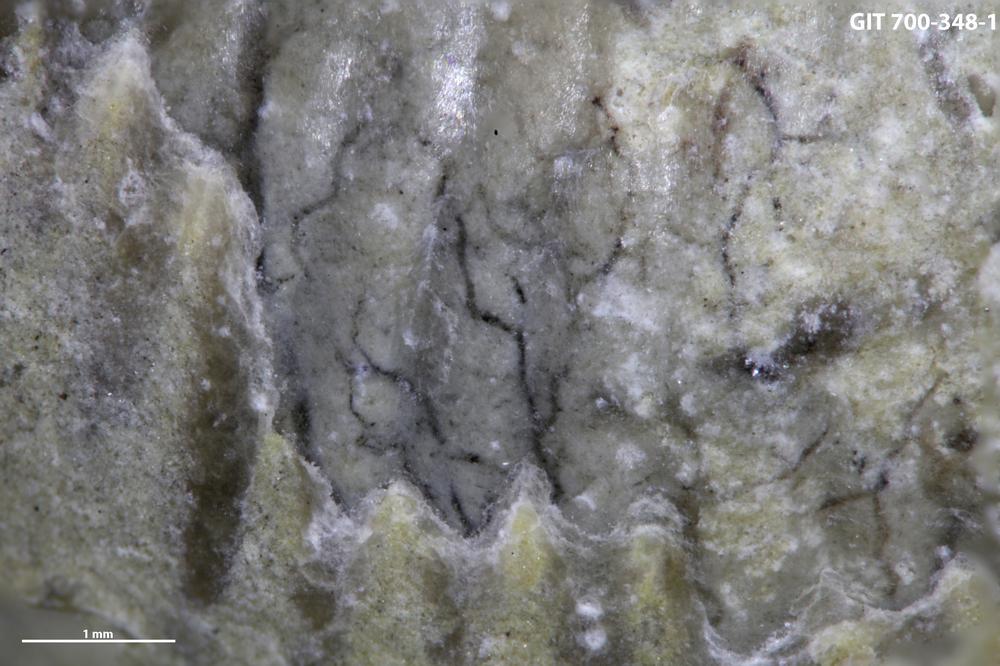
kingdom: Animalia
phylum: Annelida
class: Polychaeta
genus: Arachnostega
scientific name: Arachnostega
